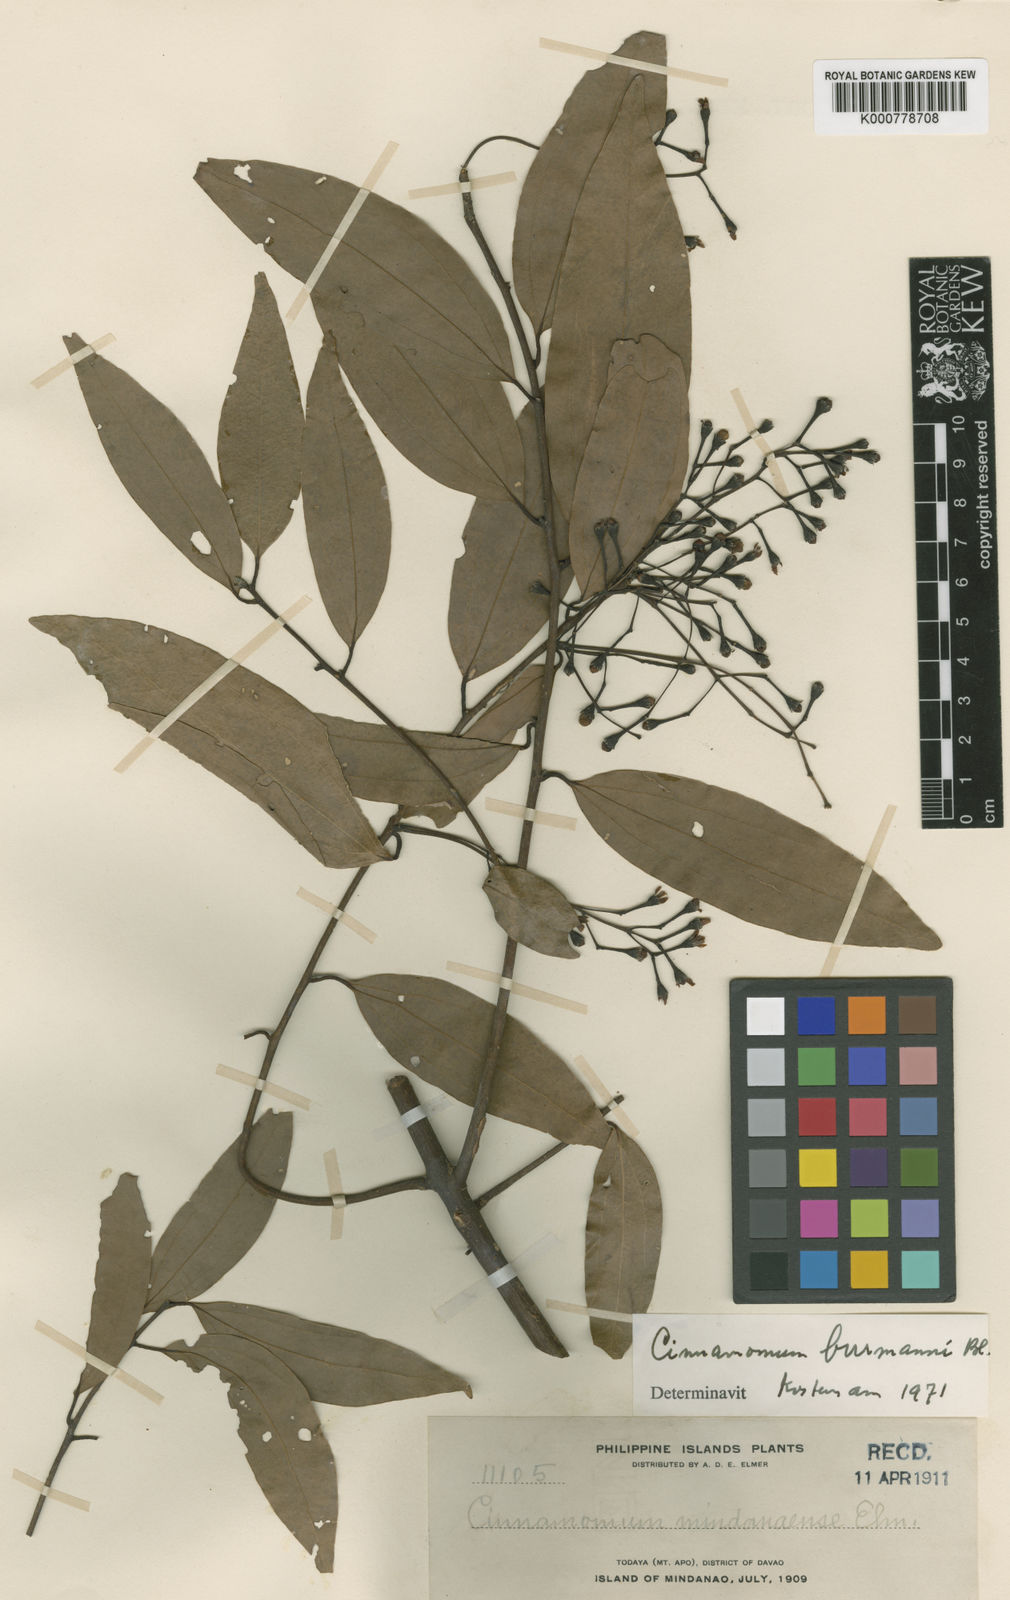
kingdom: Plantae
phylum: Tracheophyta
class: Magnoliopsida
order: Laurales
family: Lauraceae
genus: Cinnamomum
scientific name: Cinnamomum burmanni
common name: Padang cassia
